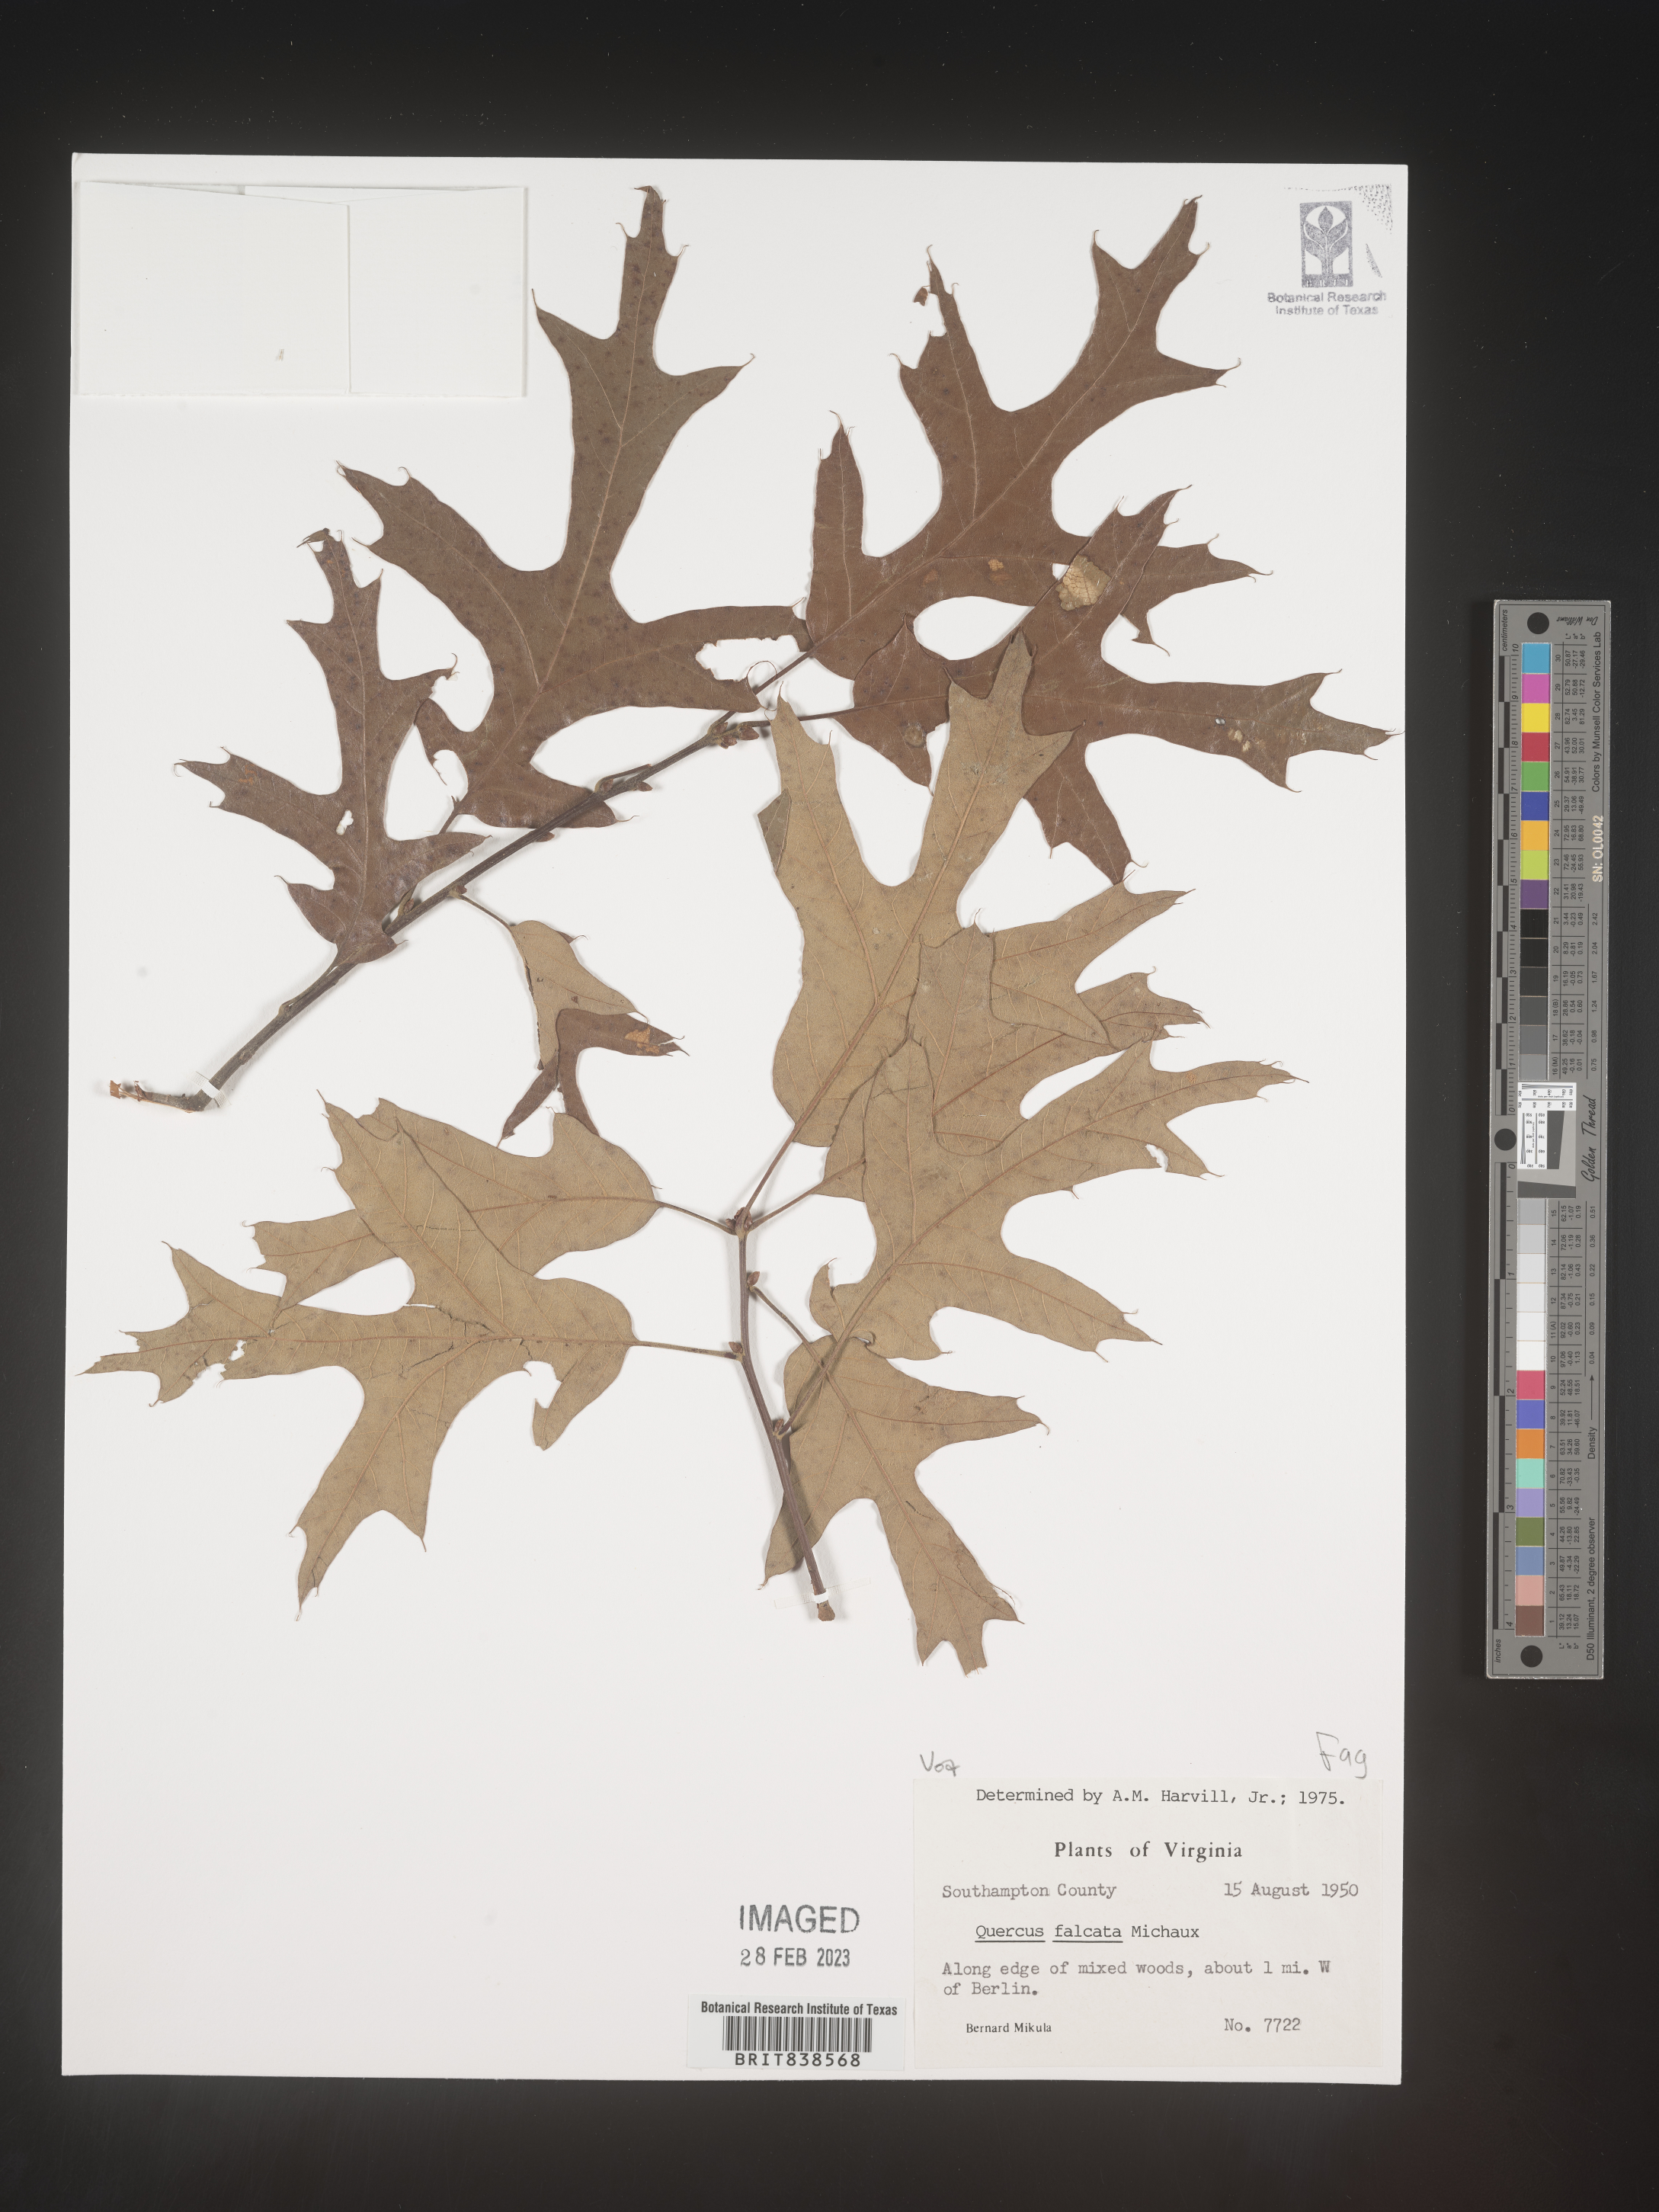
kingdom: Plantae
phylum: Tracheophyta
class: Magnoliopsida
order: Fagales
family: Fagaceae
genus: Quercus
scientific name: Quercus falcata
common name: Southern red oak
